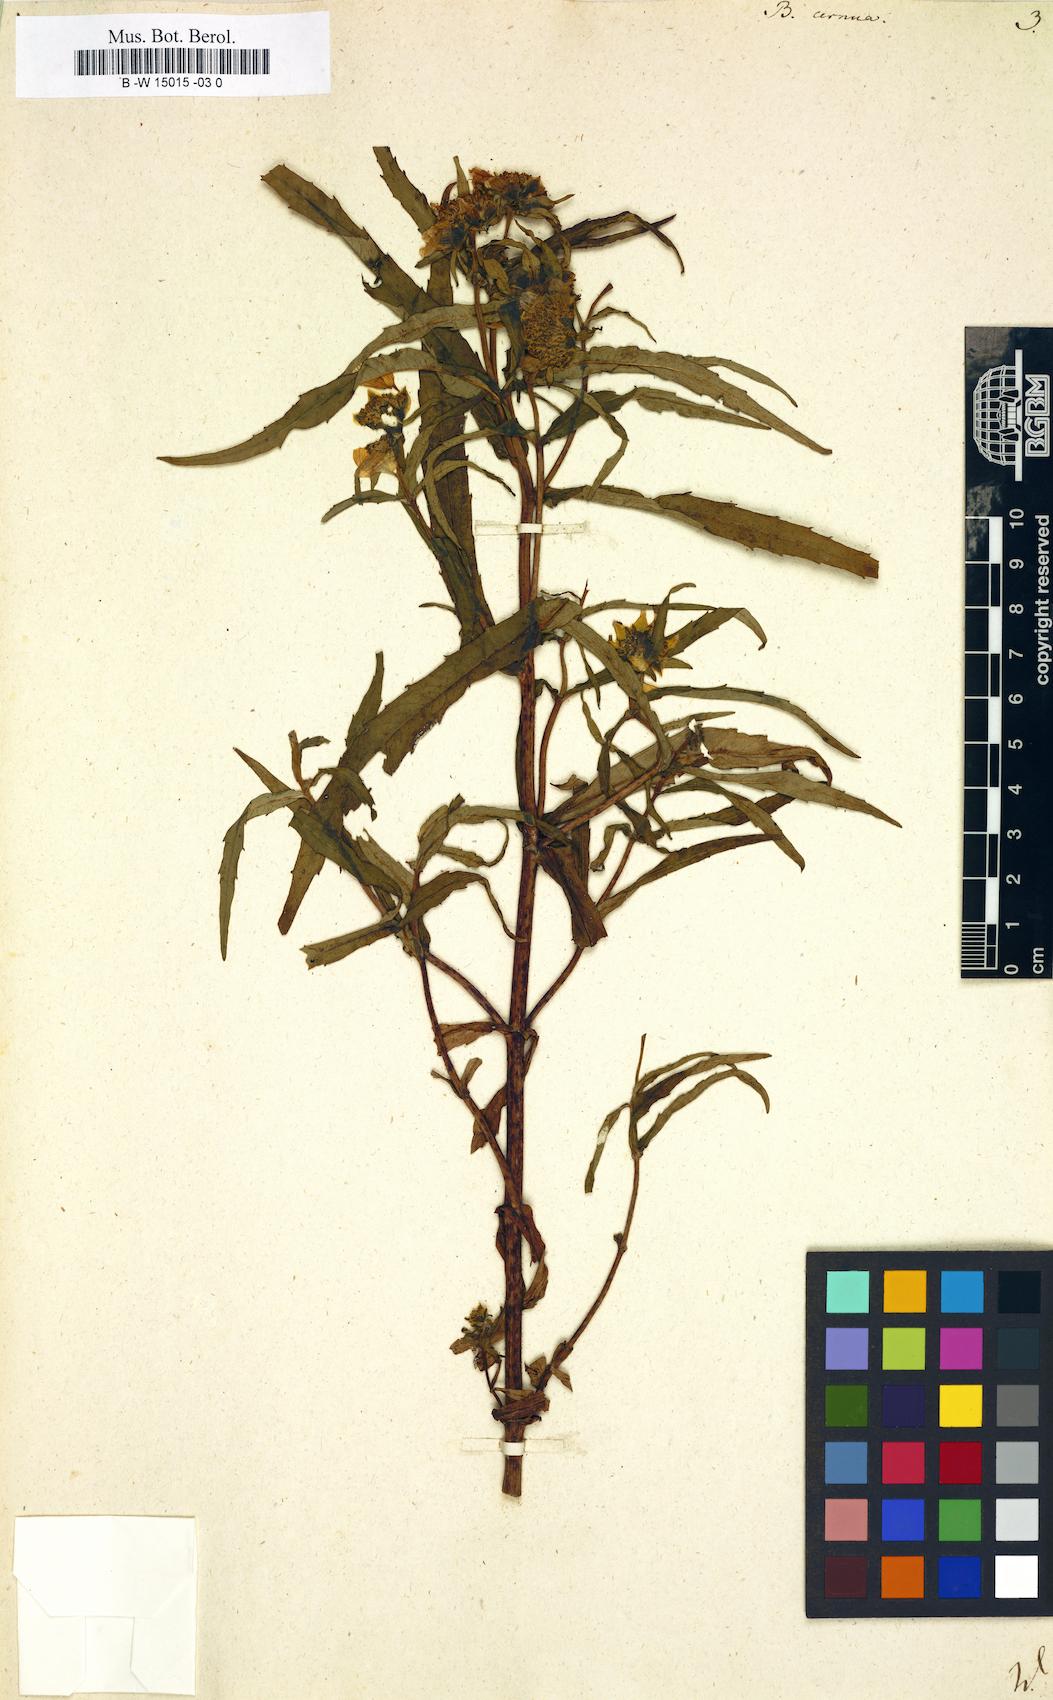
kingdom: Plantae
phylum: Tracheophyta
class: Magnoliopsida
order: Asterales
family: Asteraceae
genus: Bidens
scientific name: Bidens cernua
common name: Nodding bur-marigold
